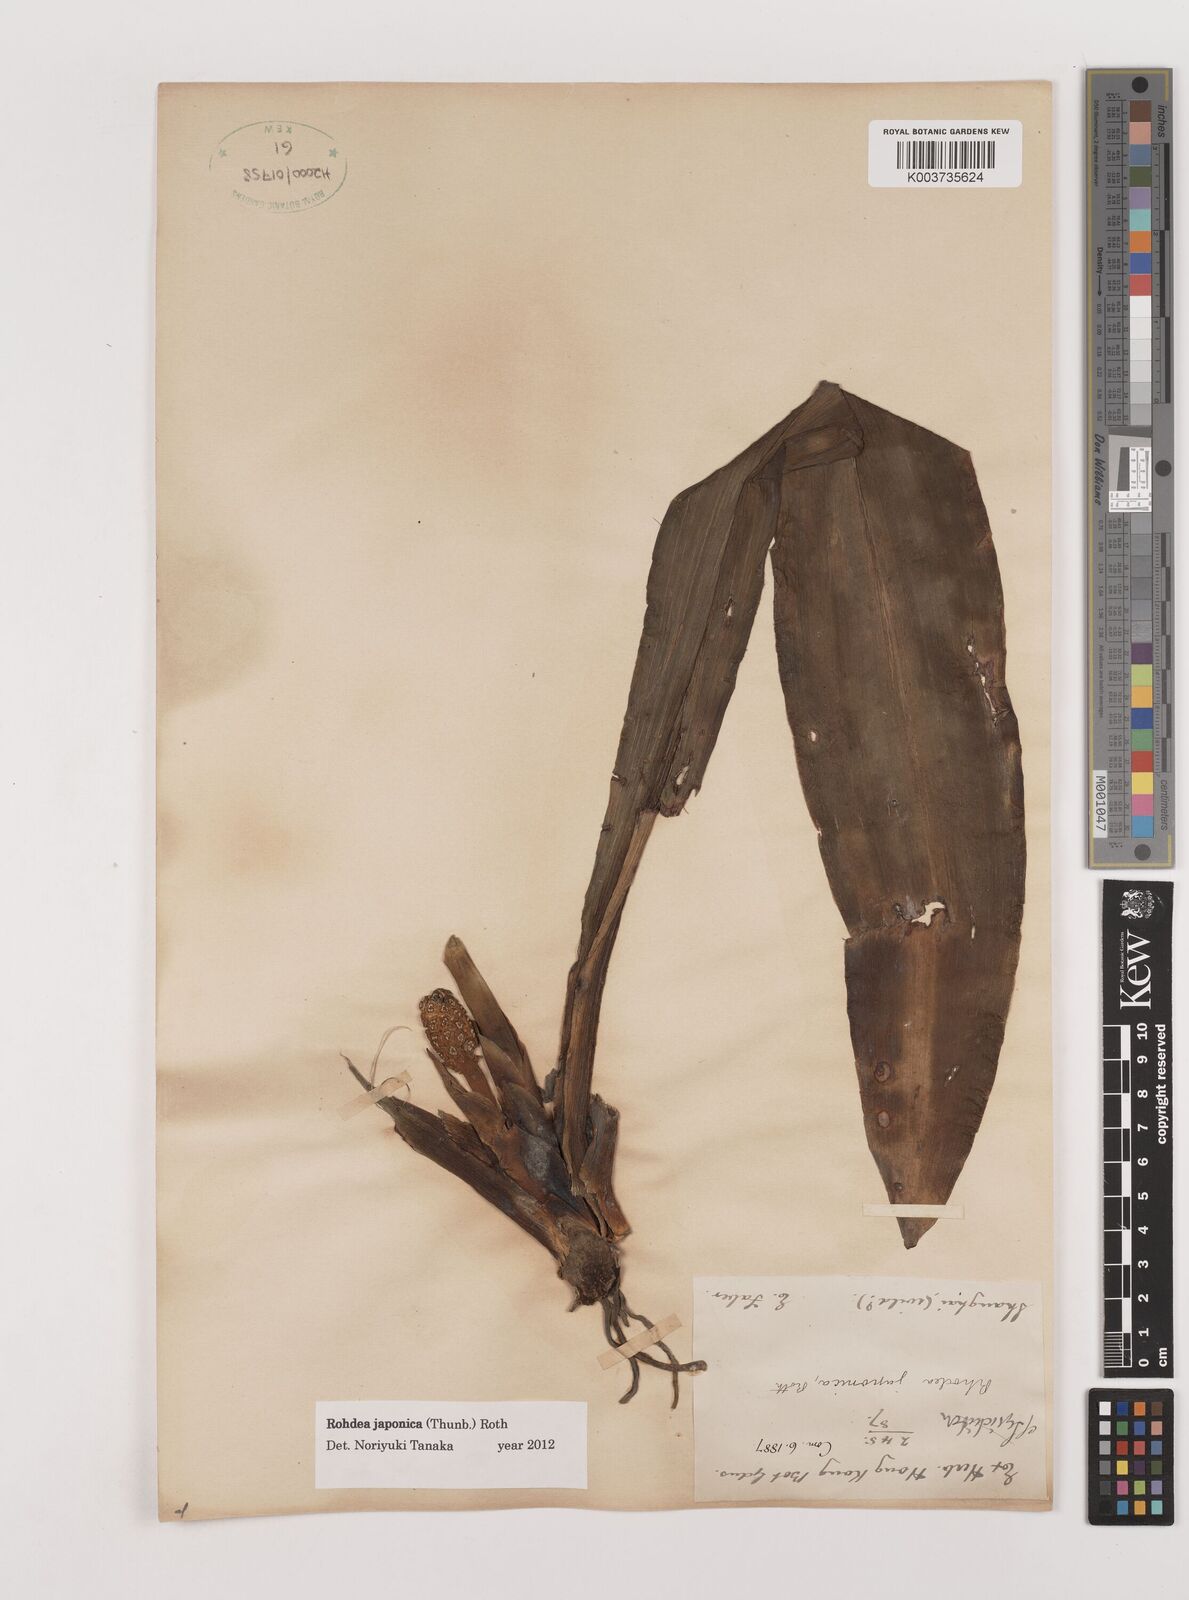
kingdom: Plantae
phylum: Tracheophyta
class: Liliopsida
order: Asparagales
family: Asparagaceae
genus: Rohdea
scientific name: Rohdea japonica
